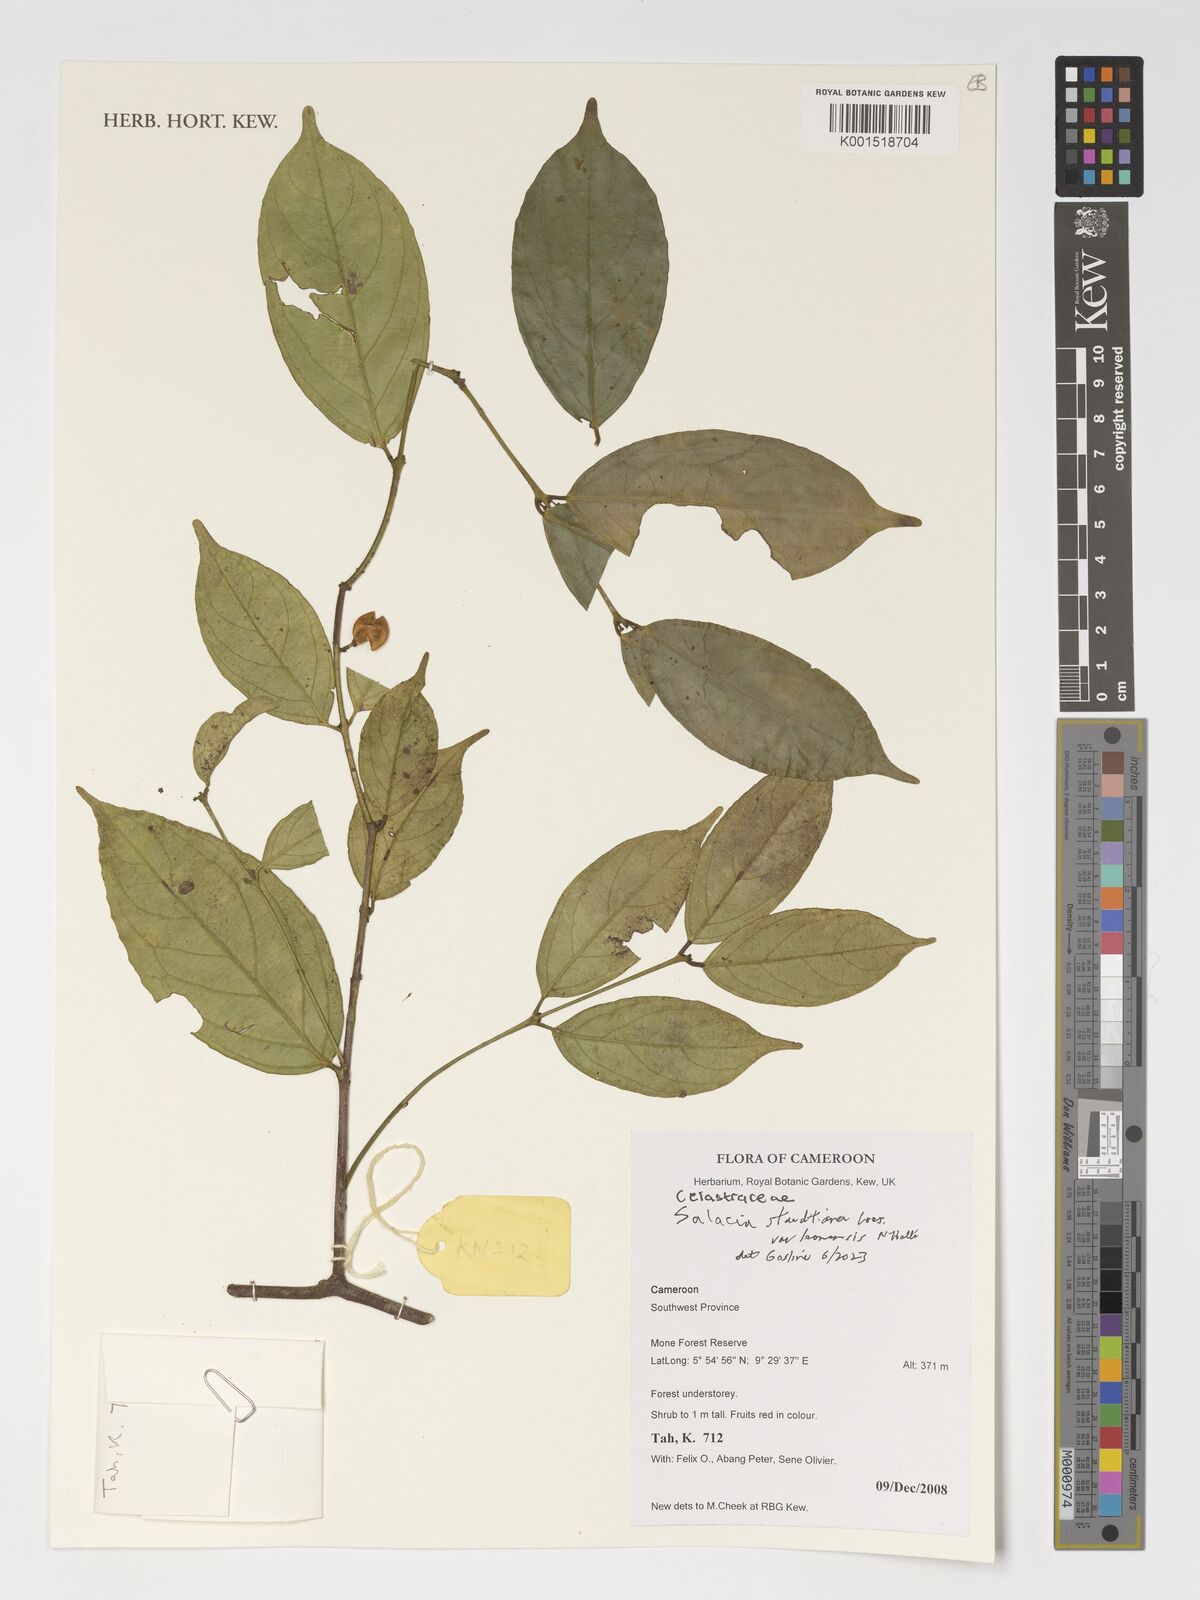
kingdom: Plantae
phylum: Tracheophyta
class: Magnoliopsida
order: Celastrales
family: Celastraceae
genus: Salacia
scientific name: Salacia staudtiana
